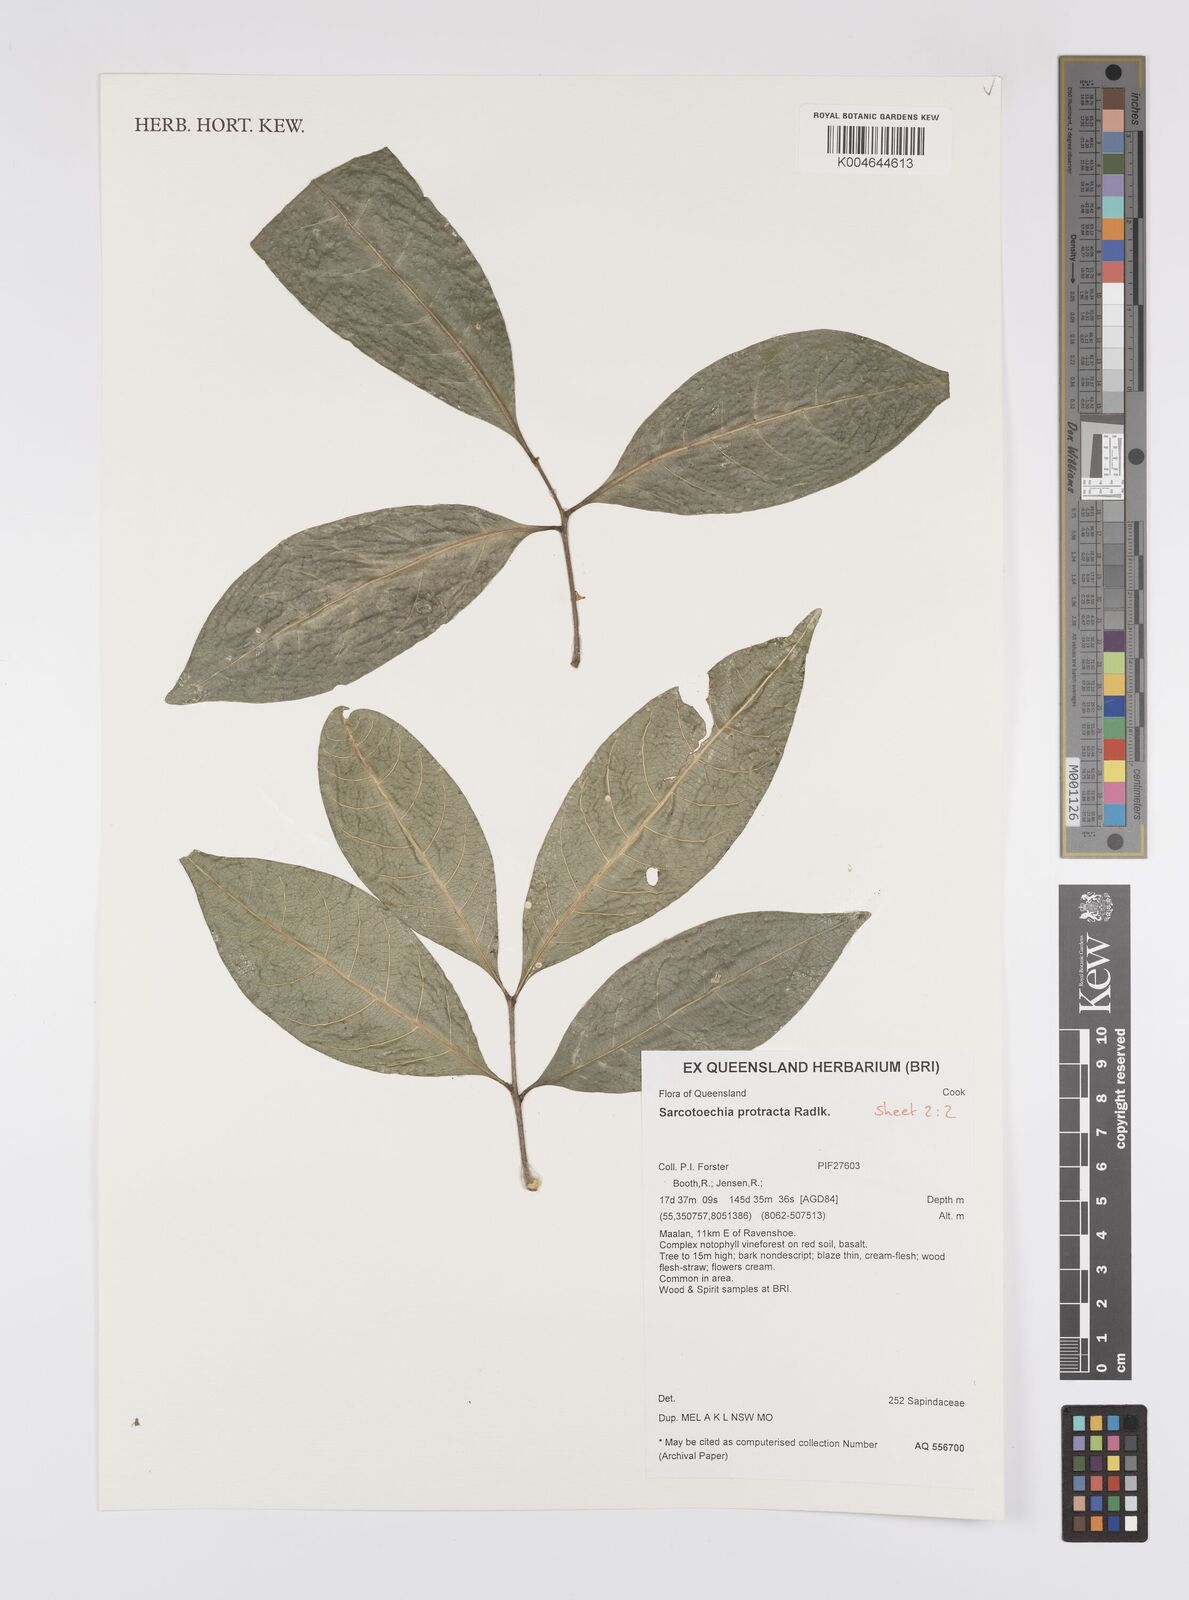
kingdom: Plantae
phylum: Tracheophyta
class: Magnoliopsida
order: Sapindales
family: Sapindaceae
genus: Sarcotoechia
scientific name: Sarcotoechia protracta
